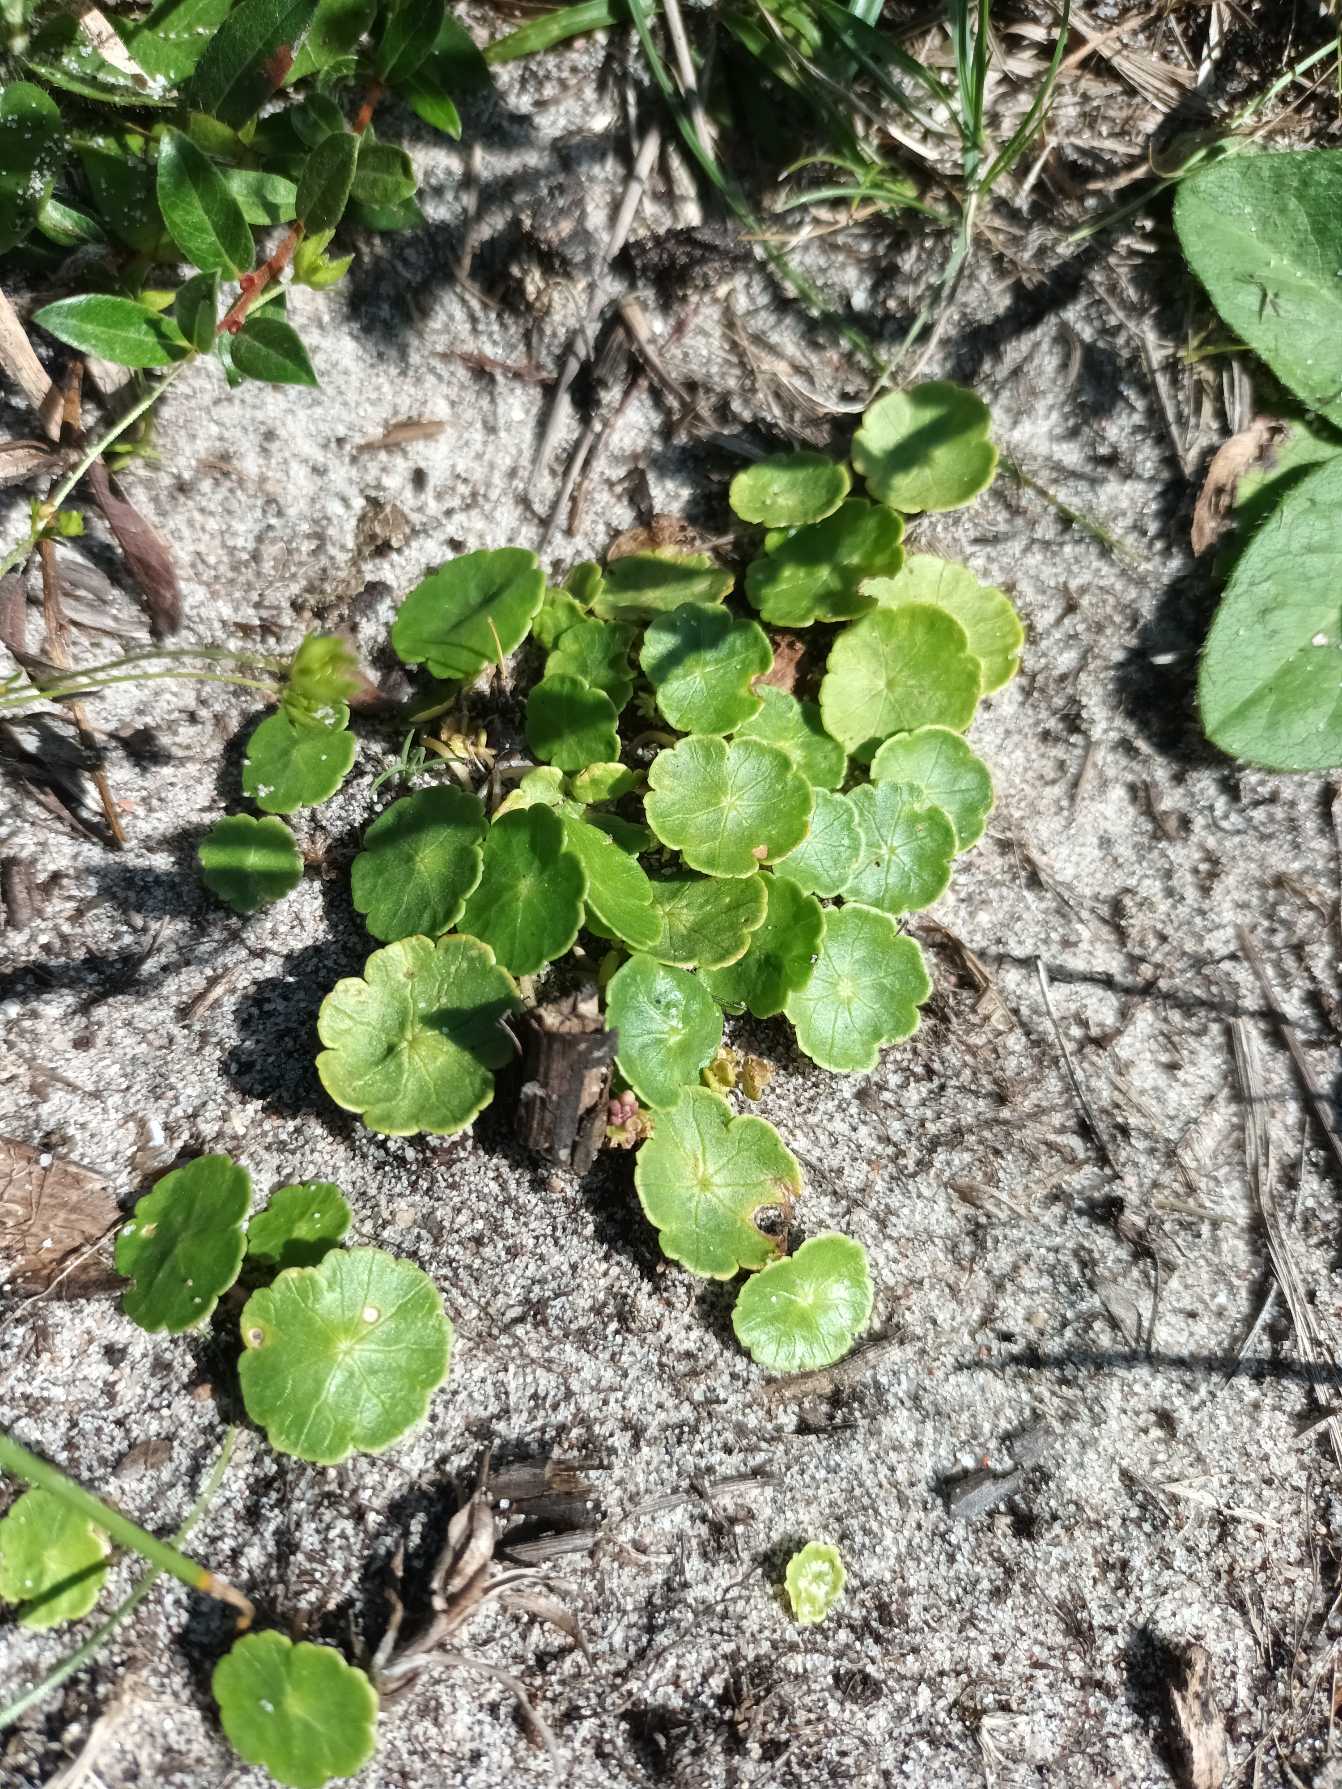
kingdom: Plantae
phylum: Tracheophyta
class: Magnoliopsida
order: Apiales
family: Araliaceae
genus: Hydrocotyle
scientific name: Hydrocotyle vulgaris
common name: Vandnavle
